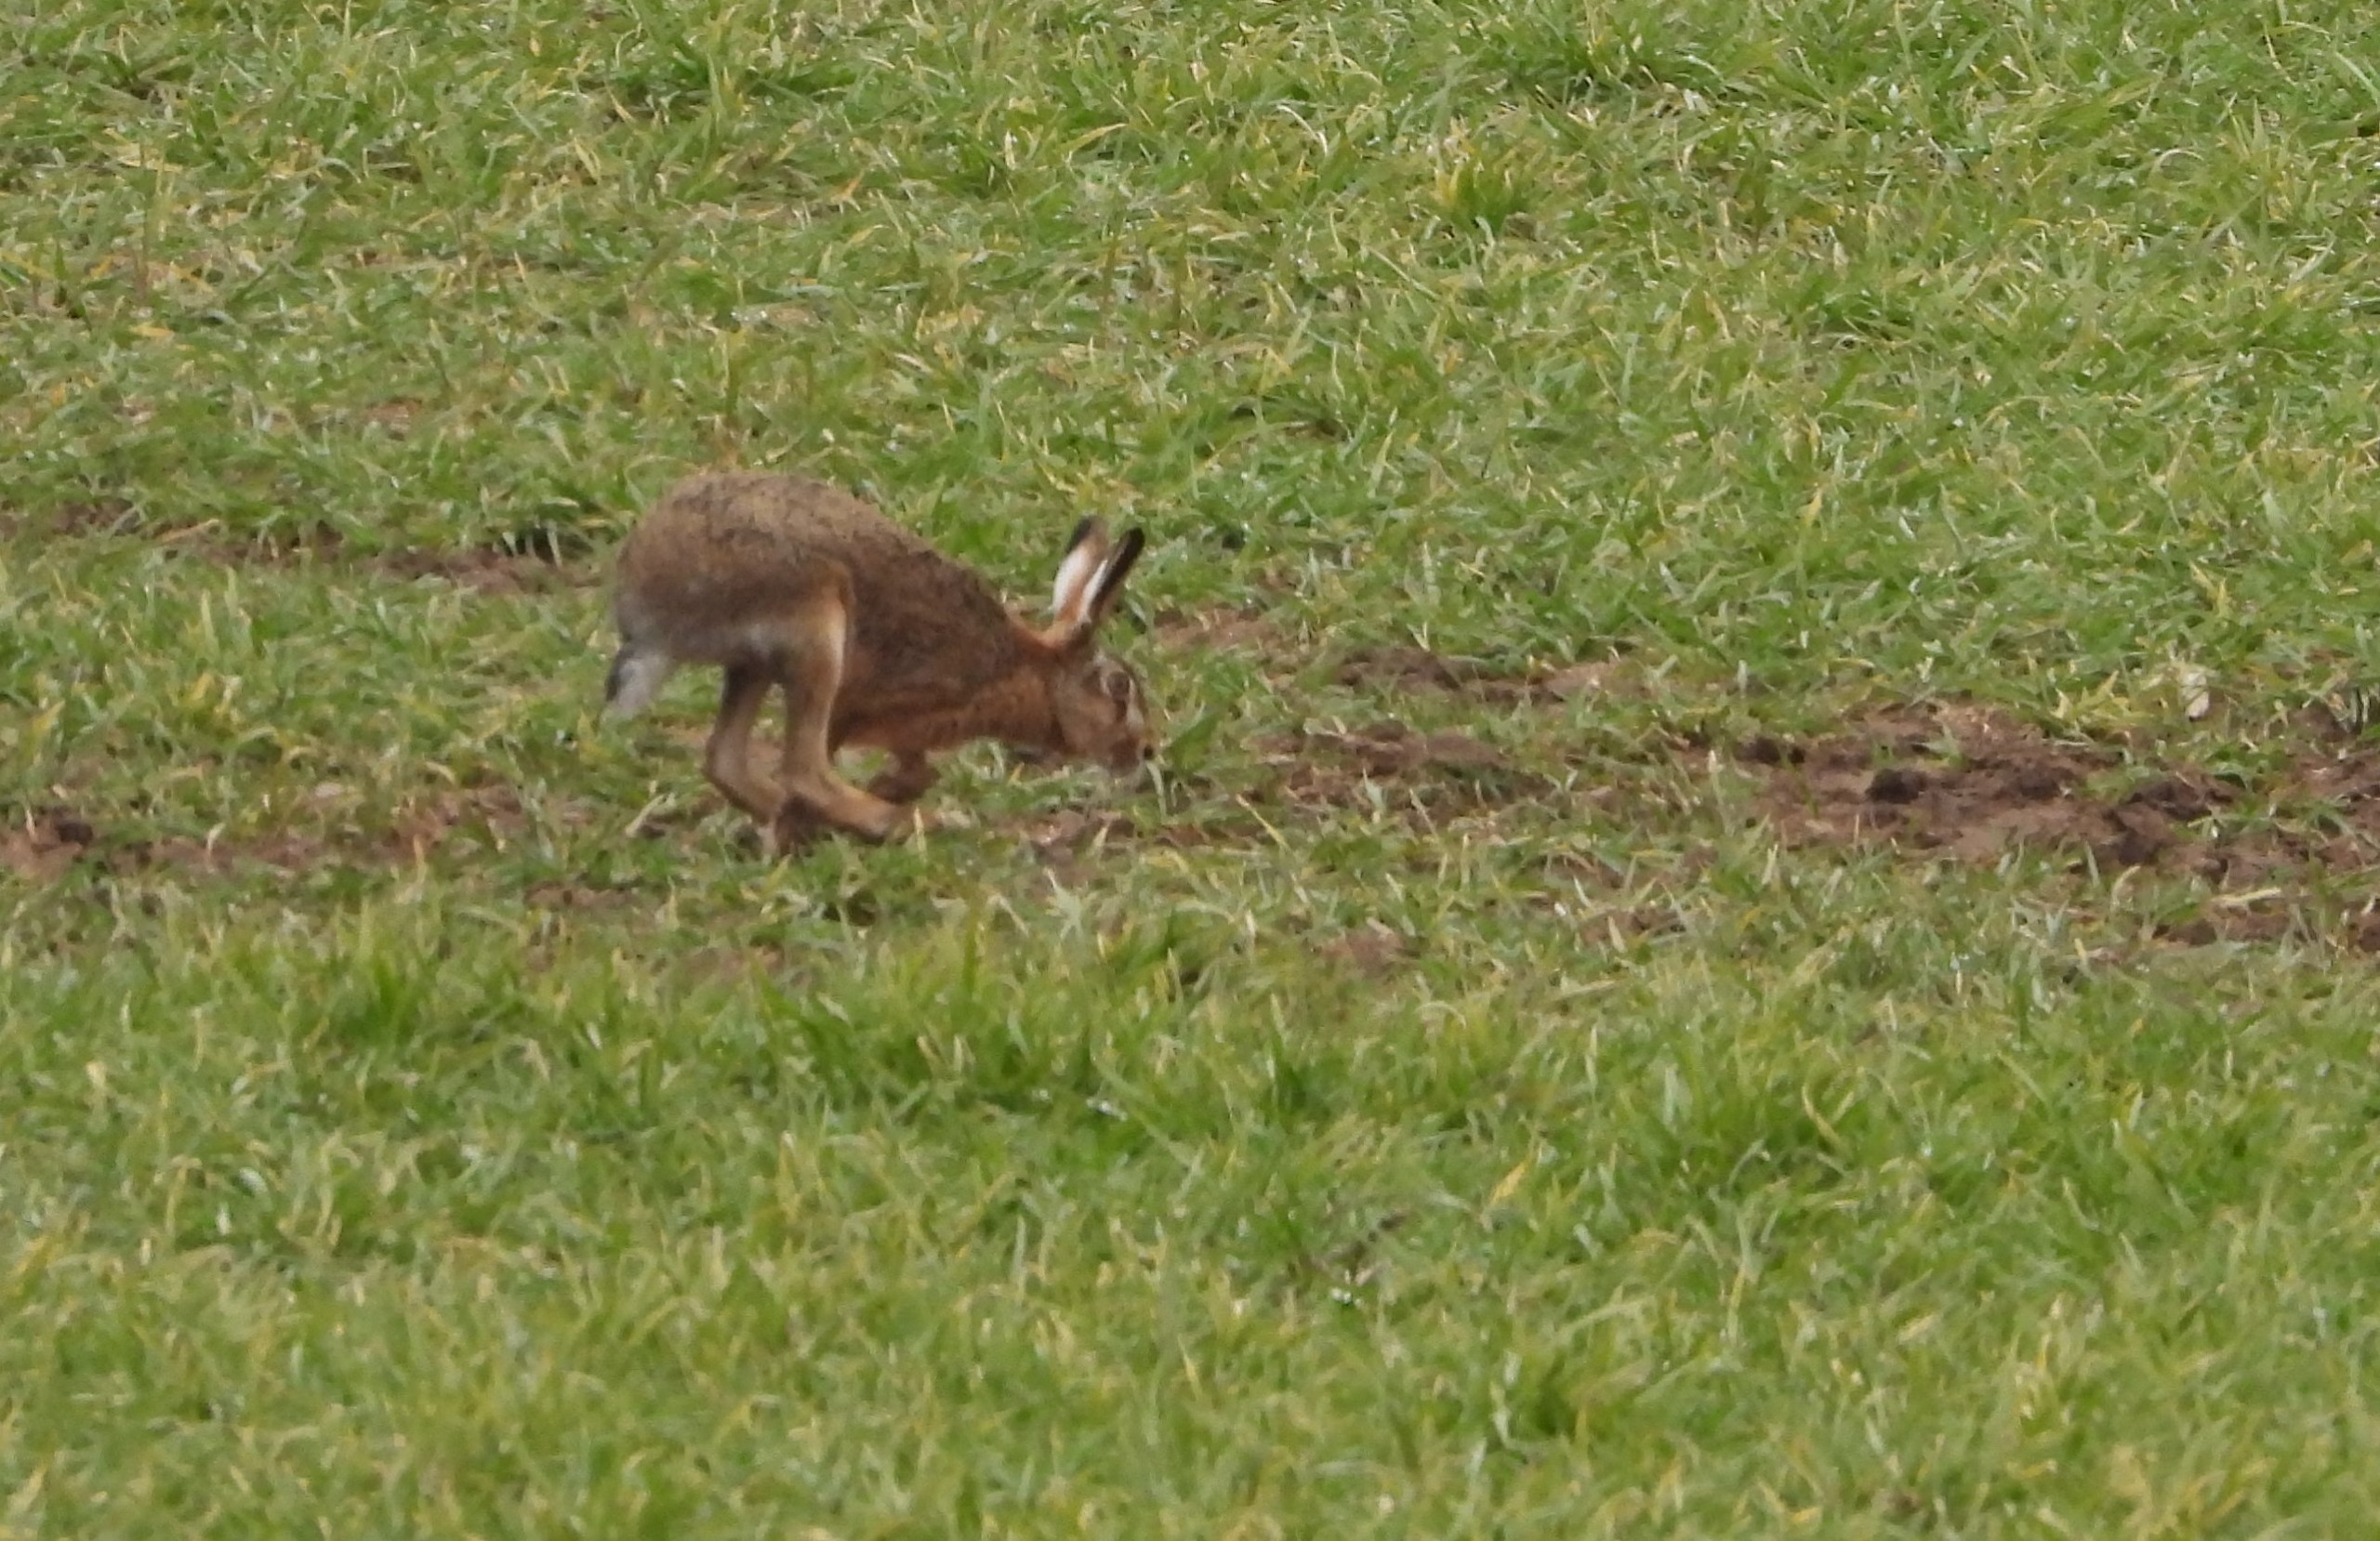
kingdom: Animalia
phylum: Chordata
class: Mammalia
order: Lagomorpha
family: Leporidae
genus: Lepus
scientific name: Lepus europaeus
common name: Hare
